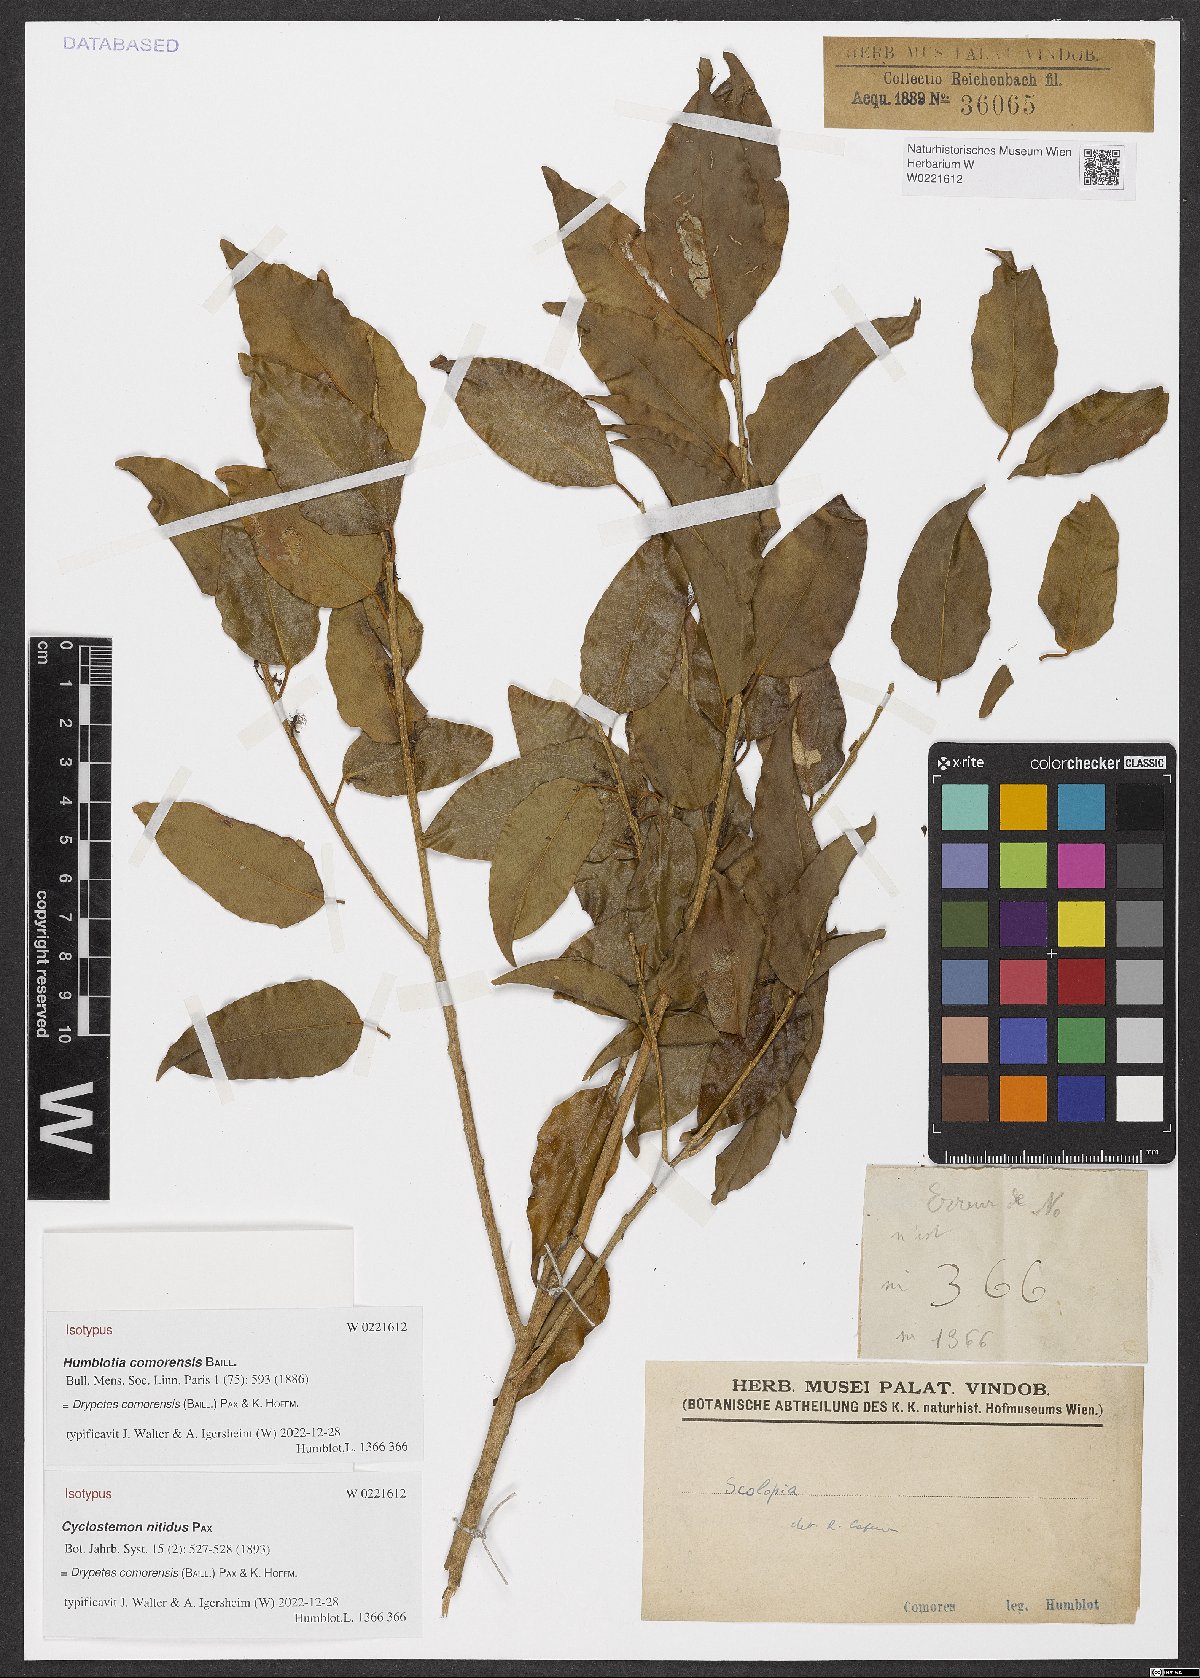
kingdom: Plantae
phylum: Tracheophyta
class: Magnoliopsida
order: Malpighiales
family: Putranjivaceae
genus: Drypetes
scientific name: Drypetes comorensis
